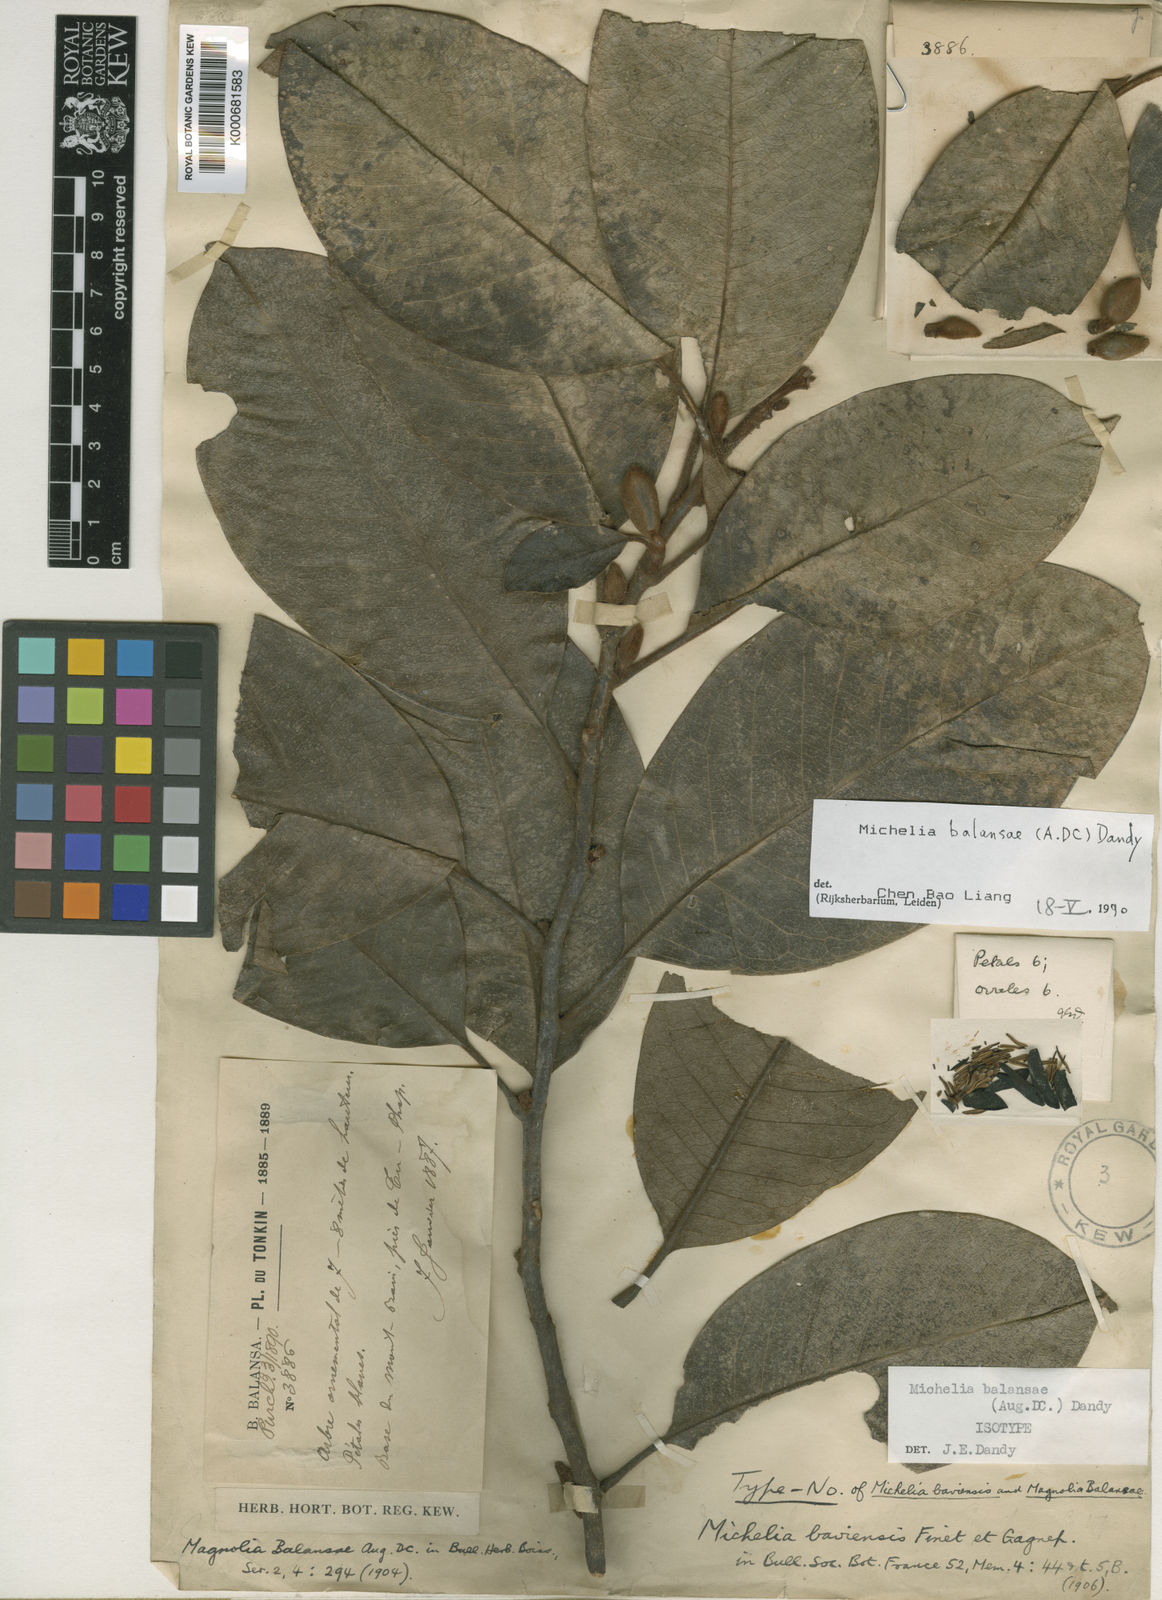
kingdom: Plantae
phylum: Tracheophyta
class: Magnoliopsida
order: Magnoliales
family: Magnoliaceae
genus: Magnolia
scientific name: Magnolia balansae
